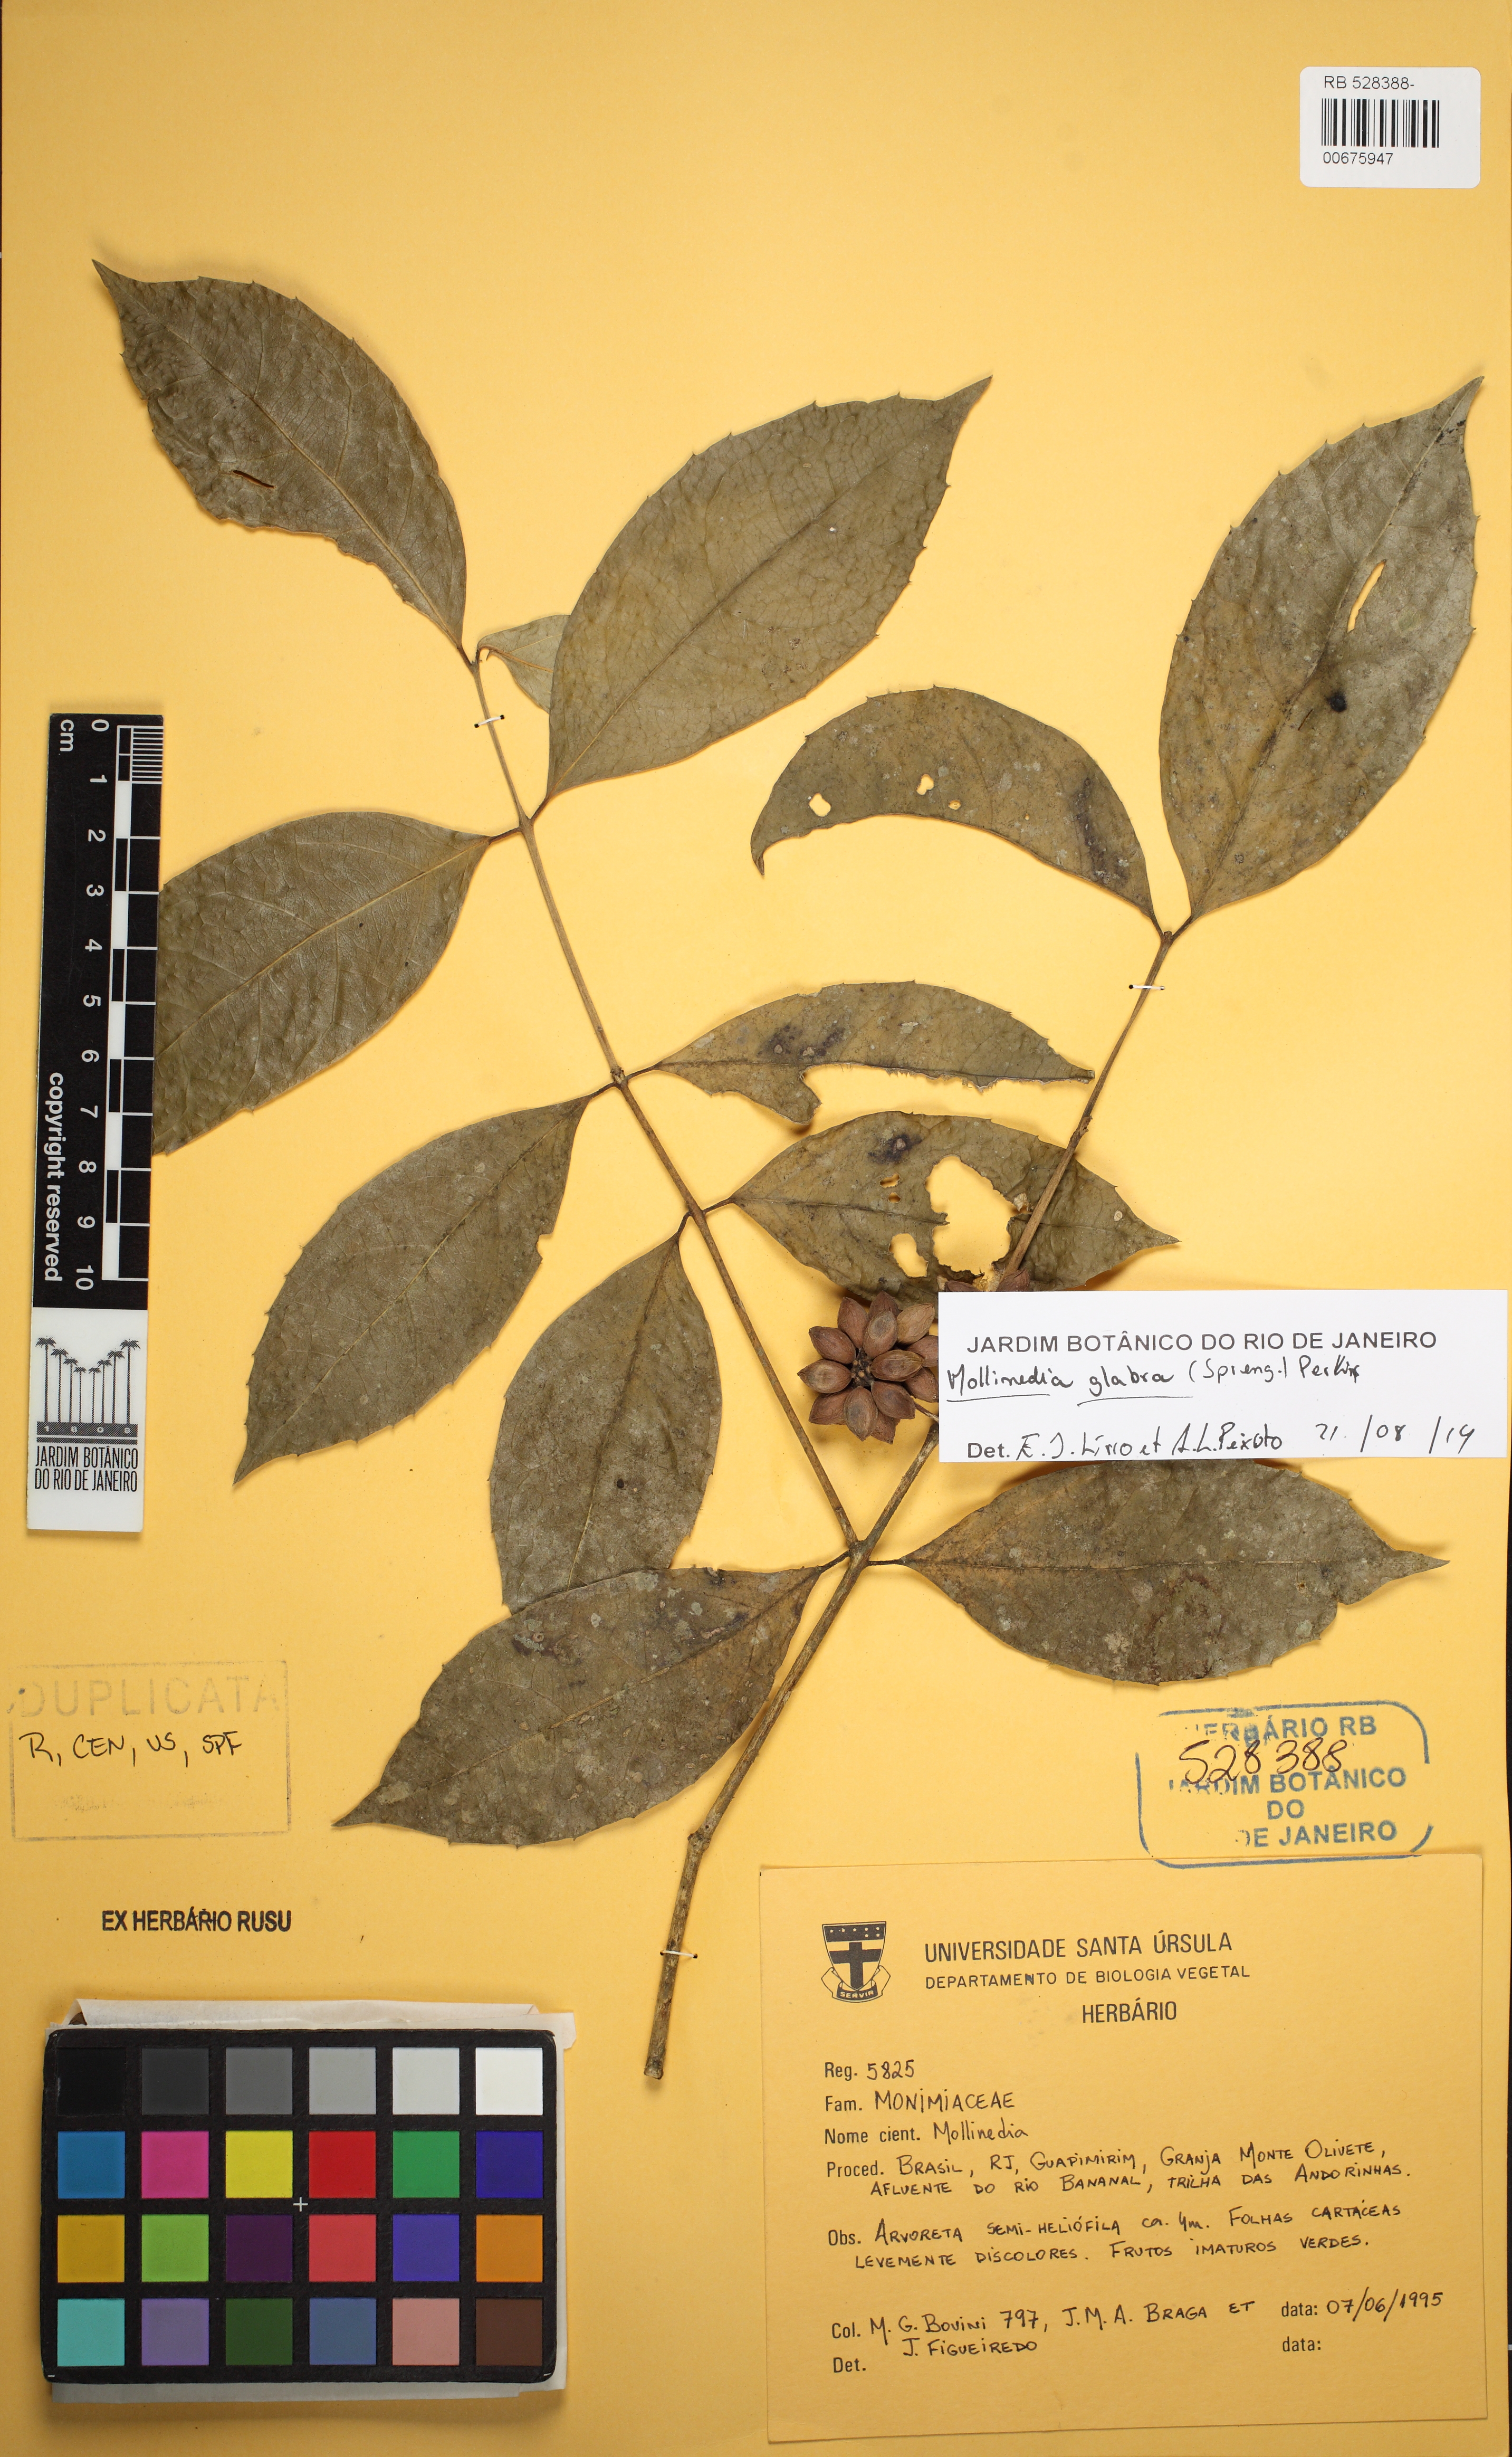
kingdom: Plantae
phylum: Tracheophyta
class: Magnoliopsida
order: Laurales
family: Monimiaceae
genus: Mollinedia
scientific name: Mollinedia elliptica
